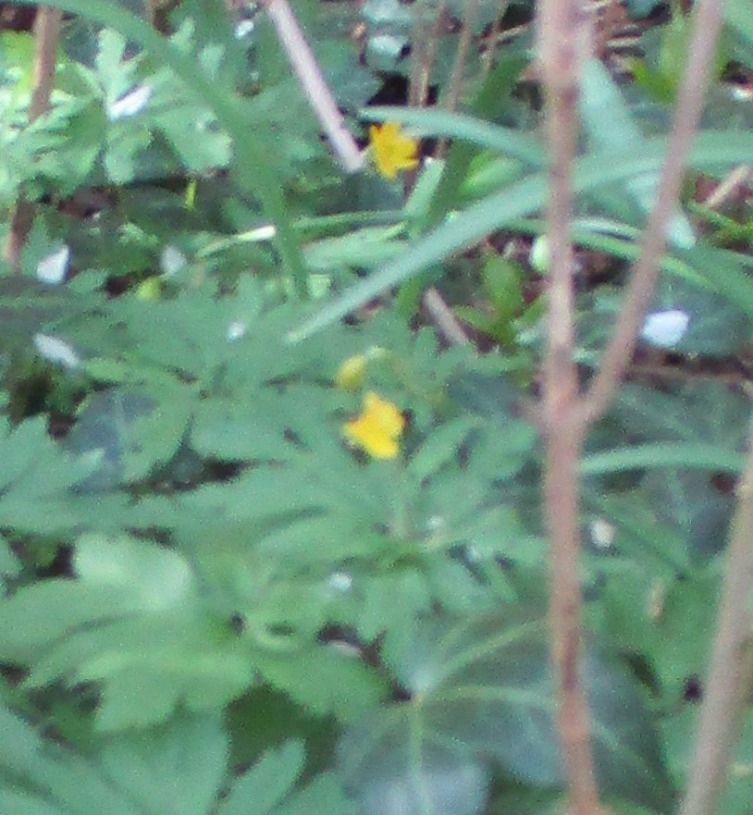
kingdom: Plantae
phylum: Tracheophyta
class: Magnoliopsida
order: Ranunculales
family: Ranunculaceae
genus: Anemone
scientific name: Anemone ranunculoides
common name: Gul anemone
